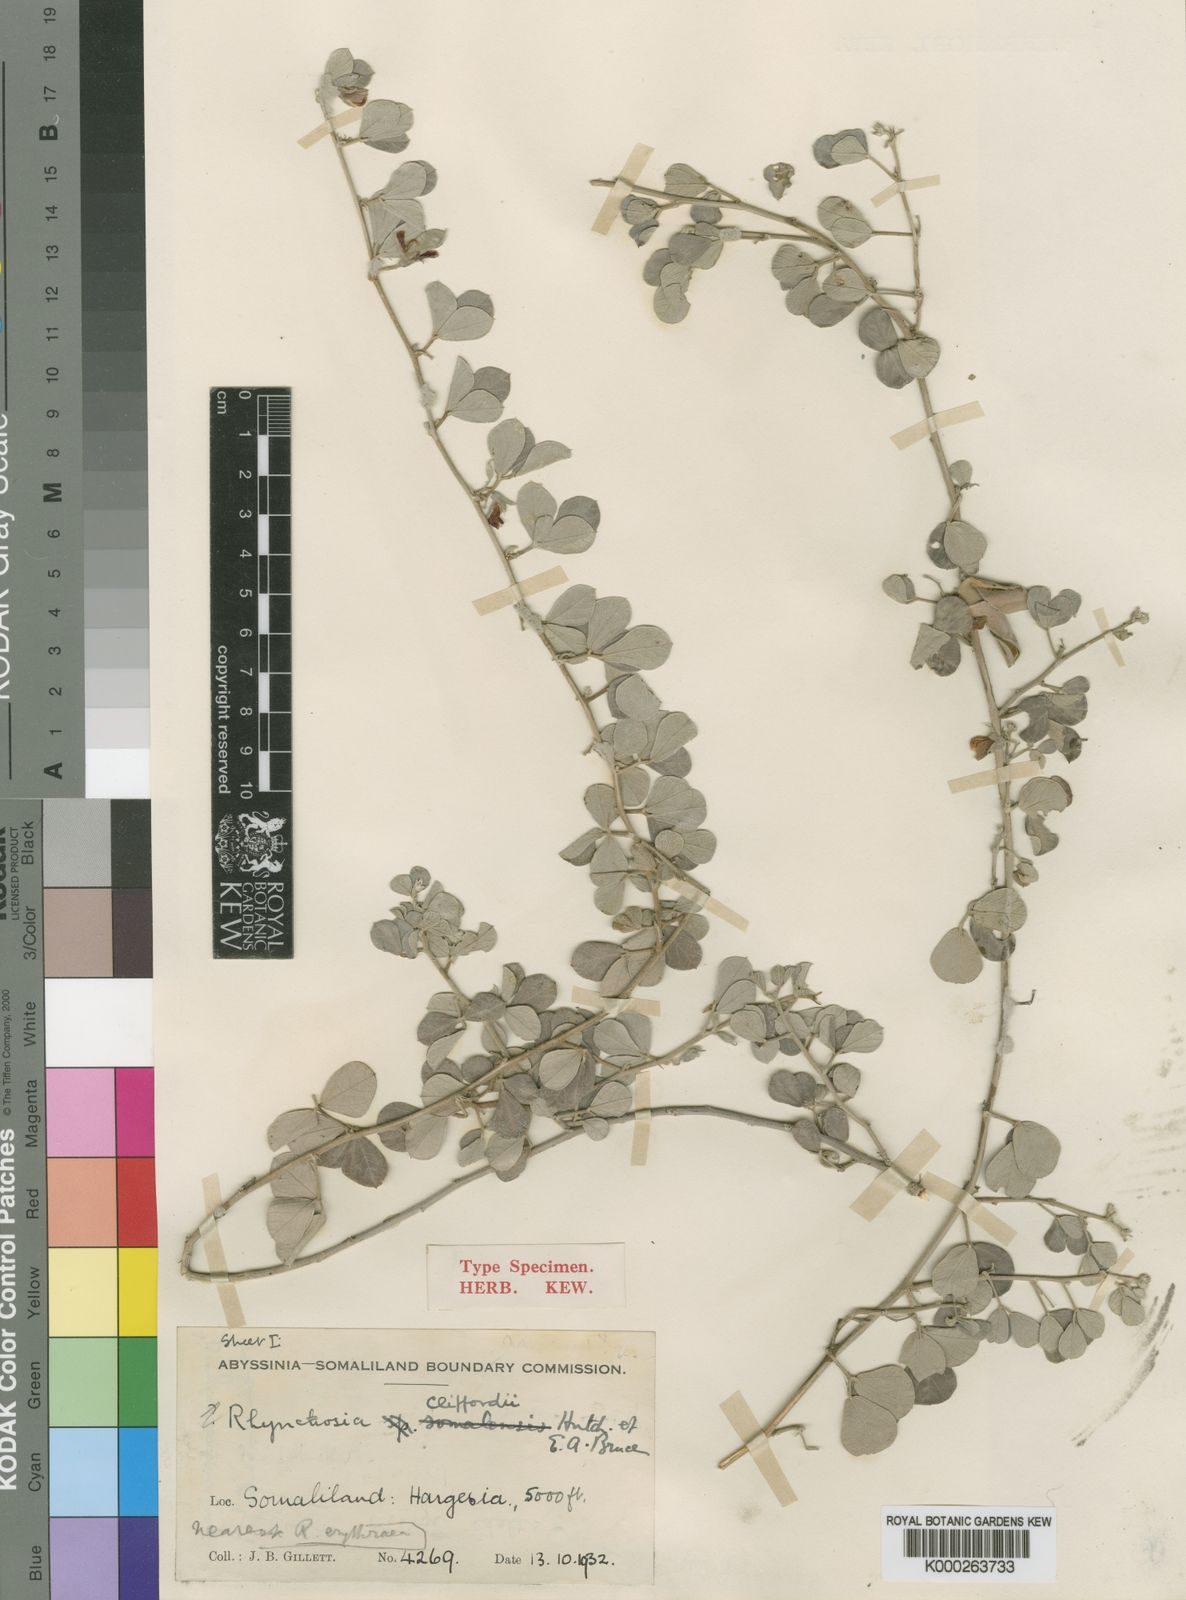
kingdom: Plantae
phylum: Tracheophyta
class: Magnoliopsida
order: Fabales
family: Fabaceae
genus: Rhynchosia
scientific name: Rhynchosia schimperi
